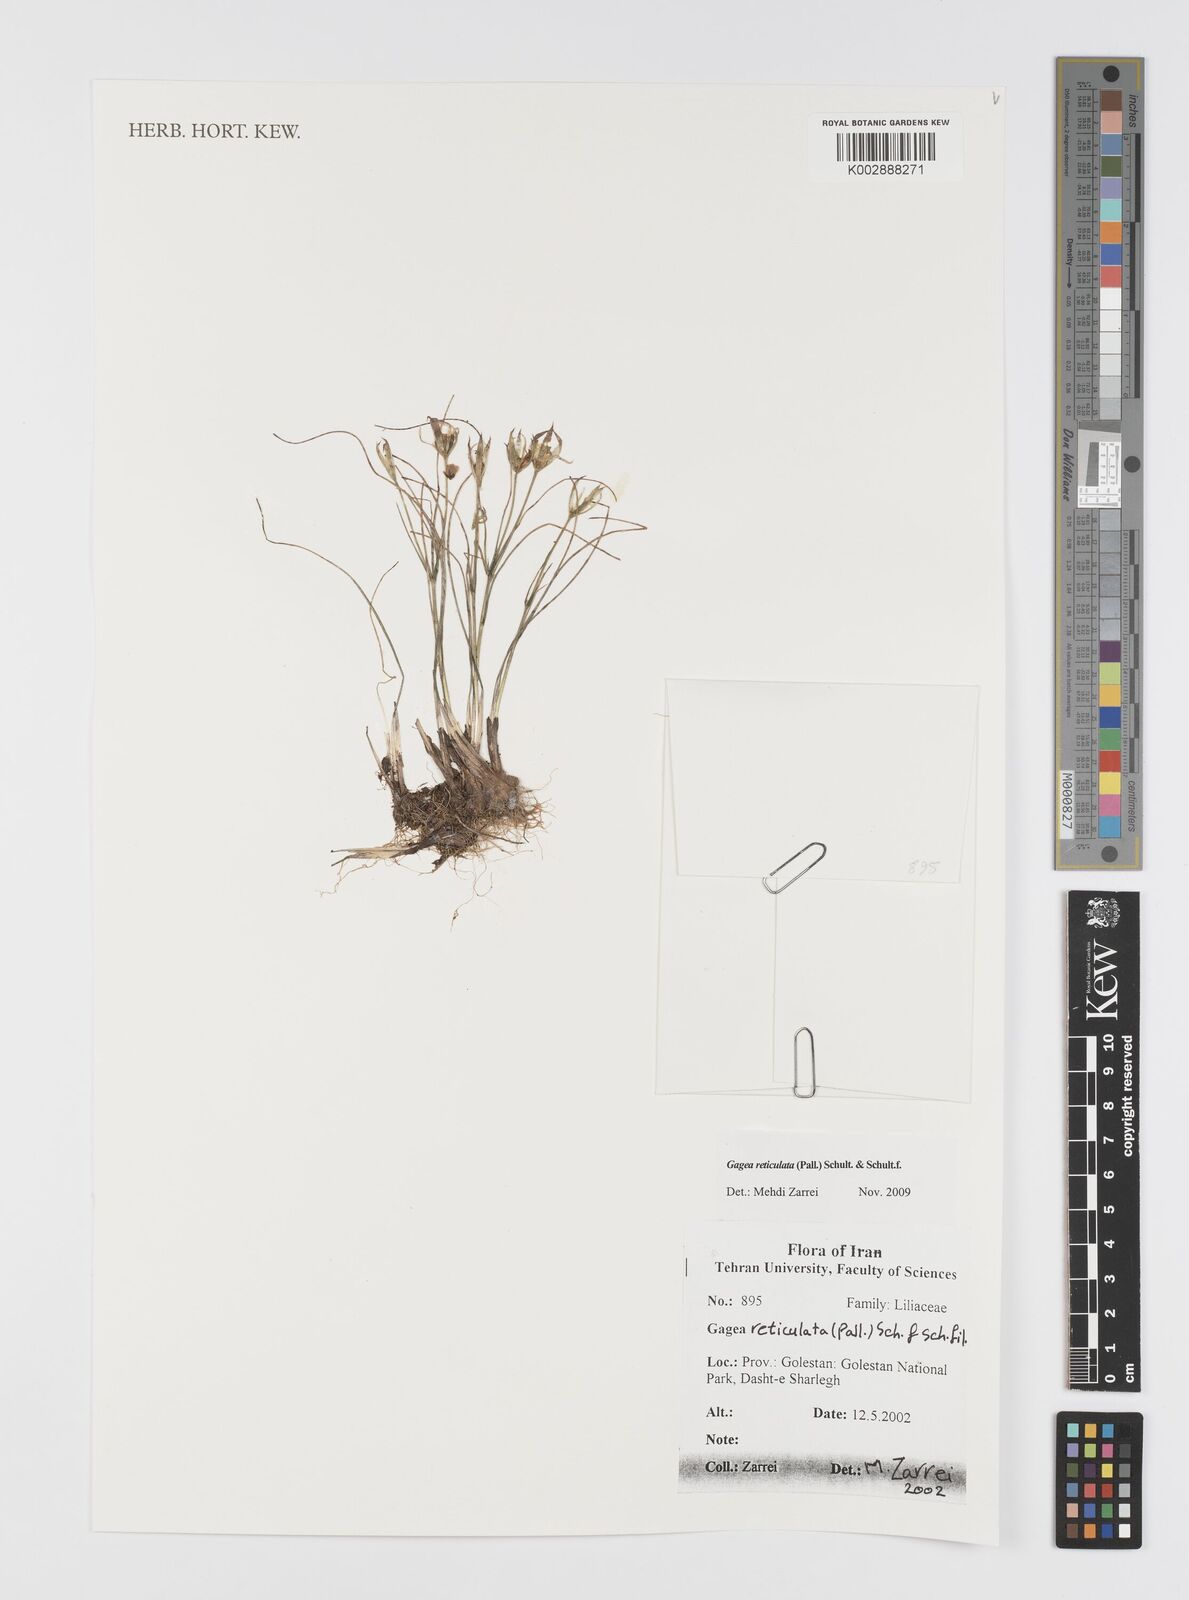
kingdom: Plantae
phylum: Tracheophyta
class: Liliopsida
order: Liliales
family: Liliaceae
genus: Gagea
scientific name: Gagea reticulata
